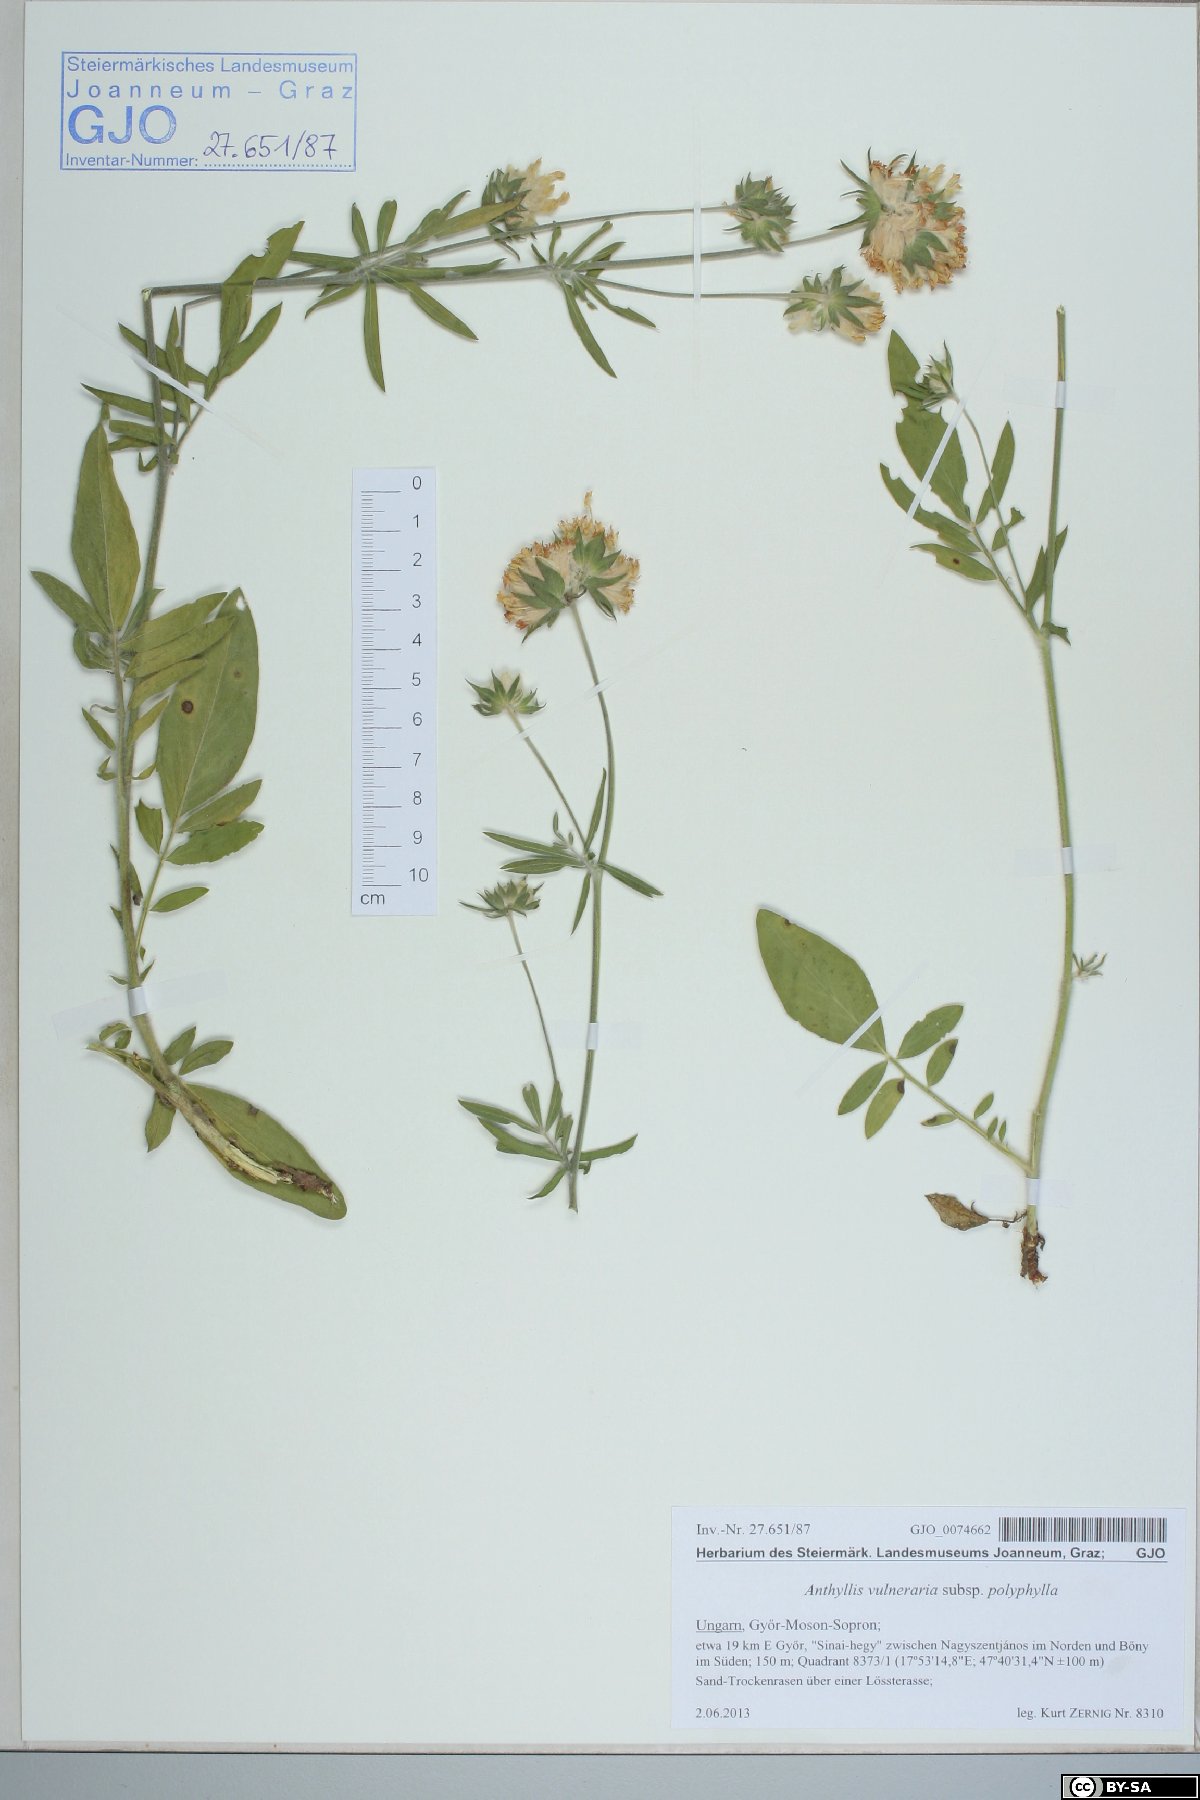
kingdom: Plantae
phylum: Tracheophyta
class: Magnoliopsida
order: Fabales
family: Fabaceae
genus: Anthyllis
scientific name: Anthyllis vulneraria
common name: Kidney vetch
